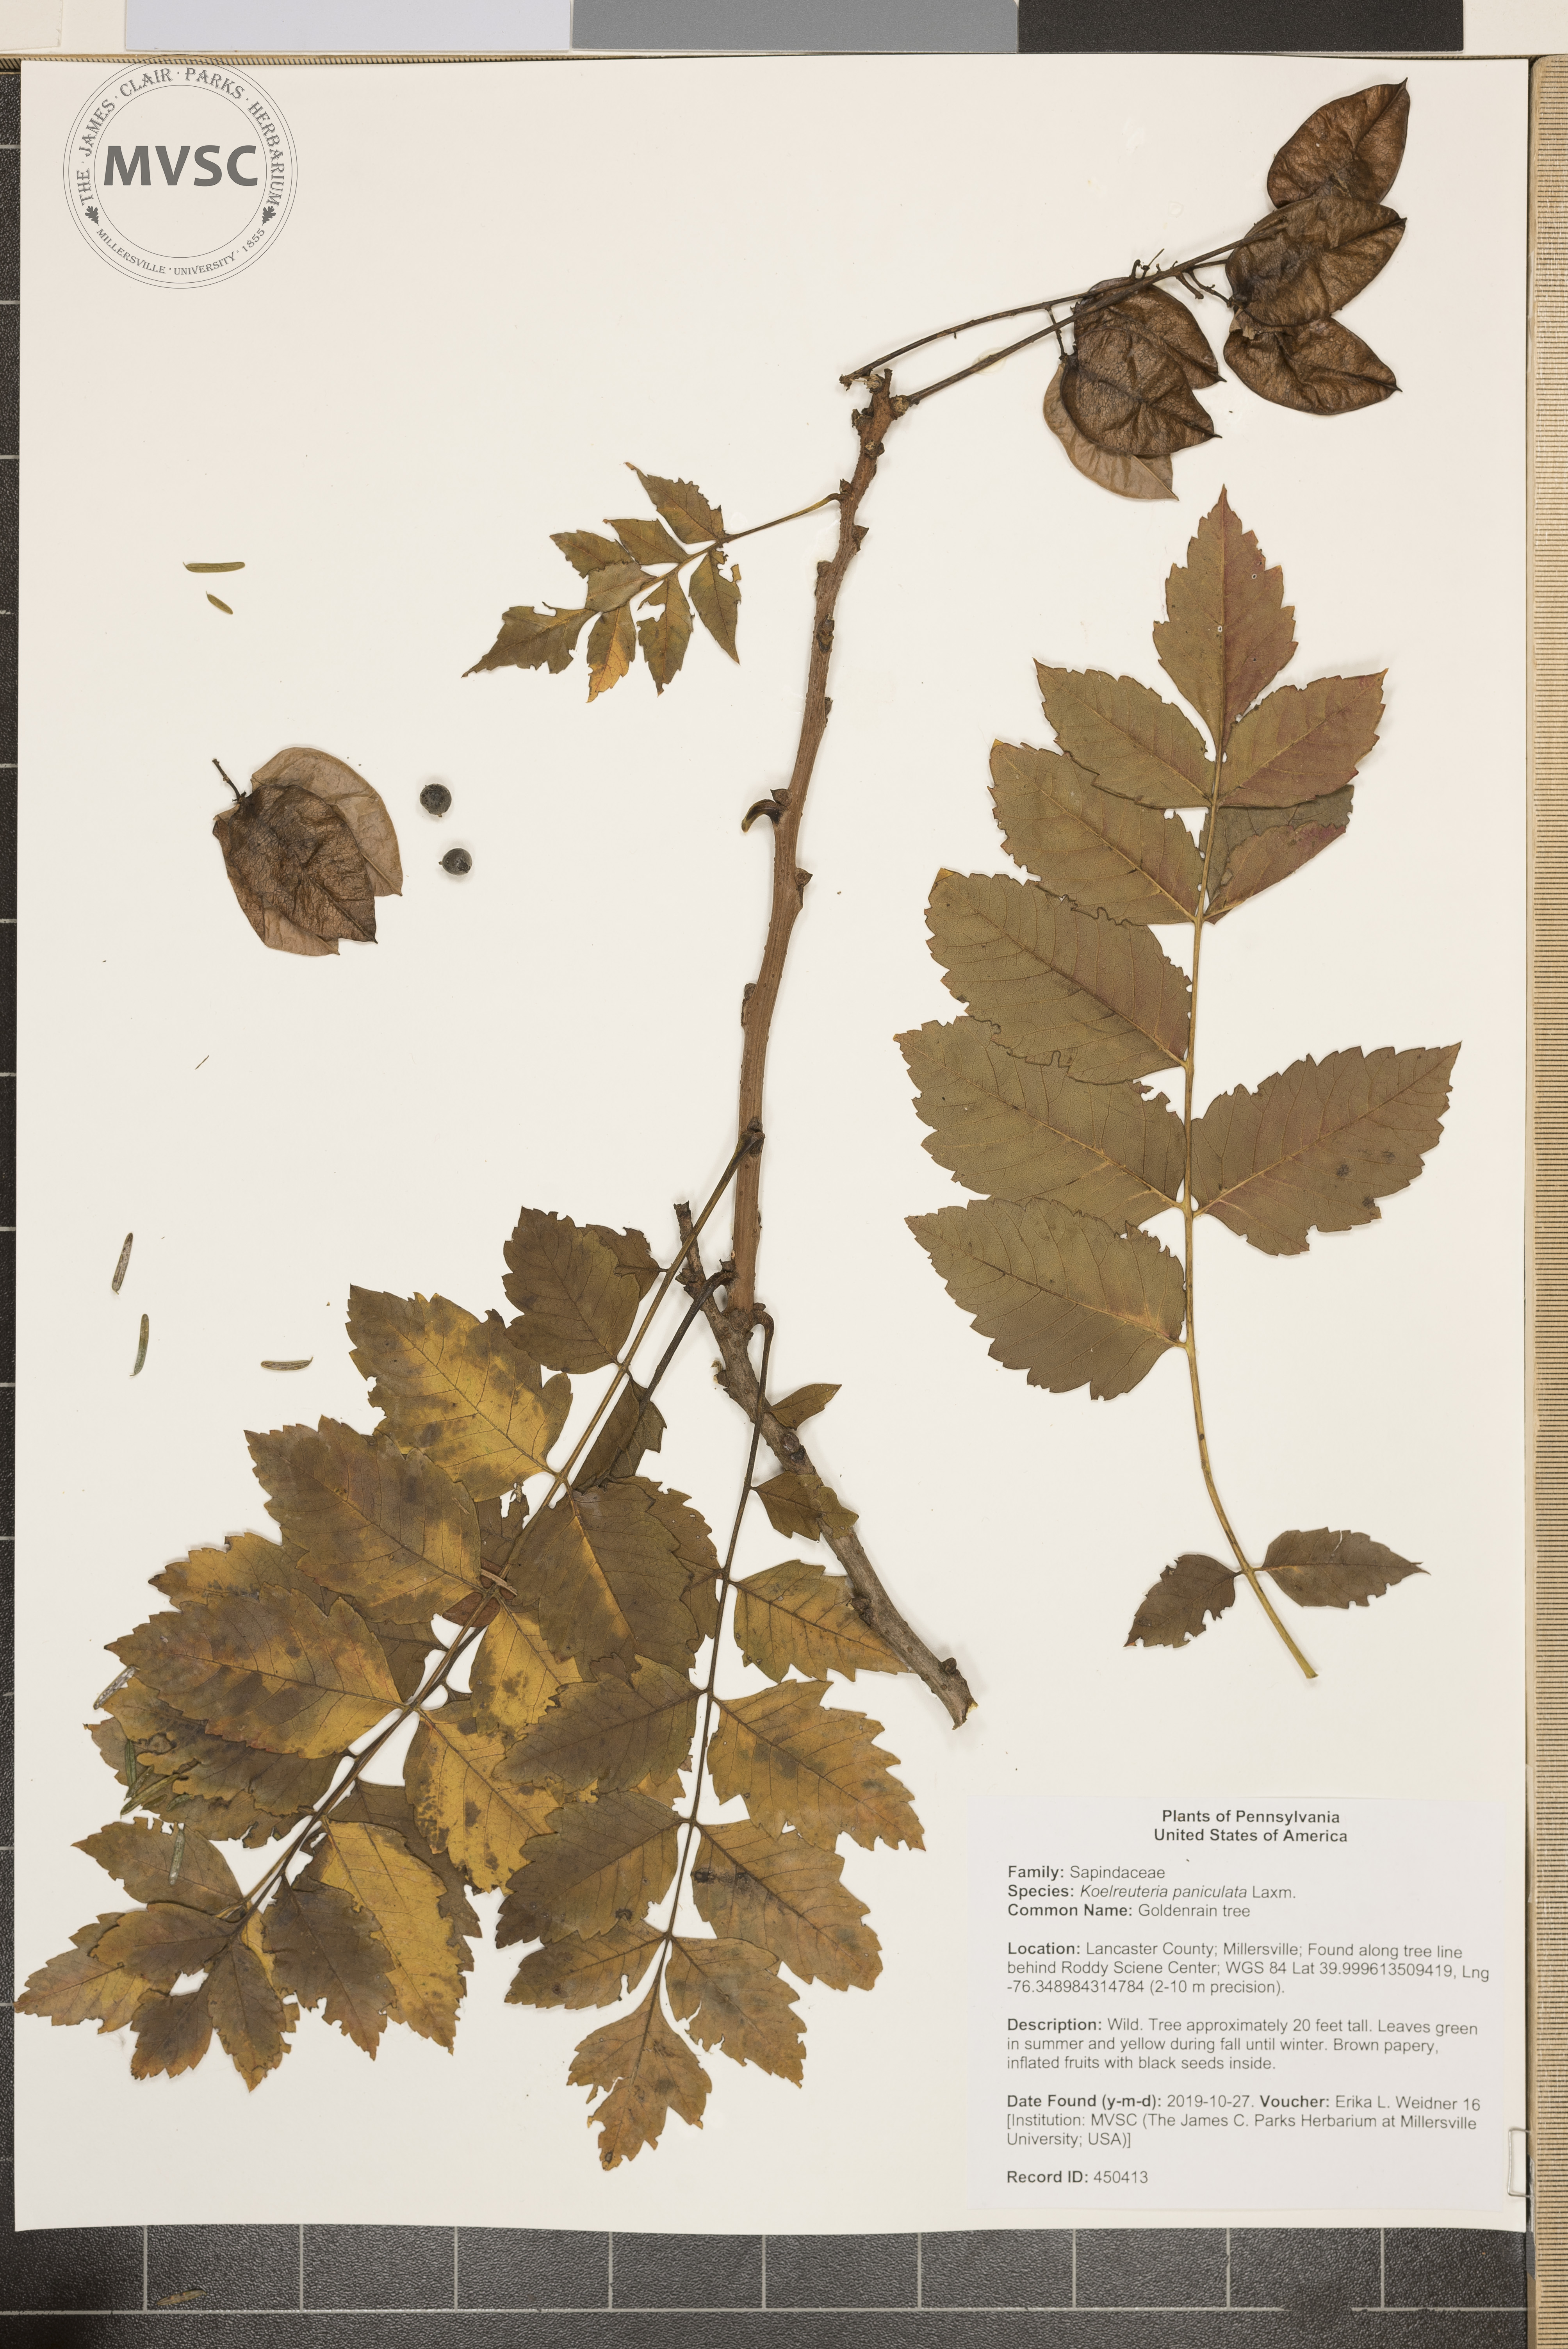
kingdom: Plantae
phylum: Tracheophyta
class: Magnoliopsida
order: Sapindales
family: Sapindaceae
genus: Koelreuteria
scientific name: Koelreuteria paniculata
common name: Goldenrain tree
